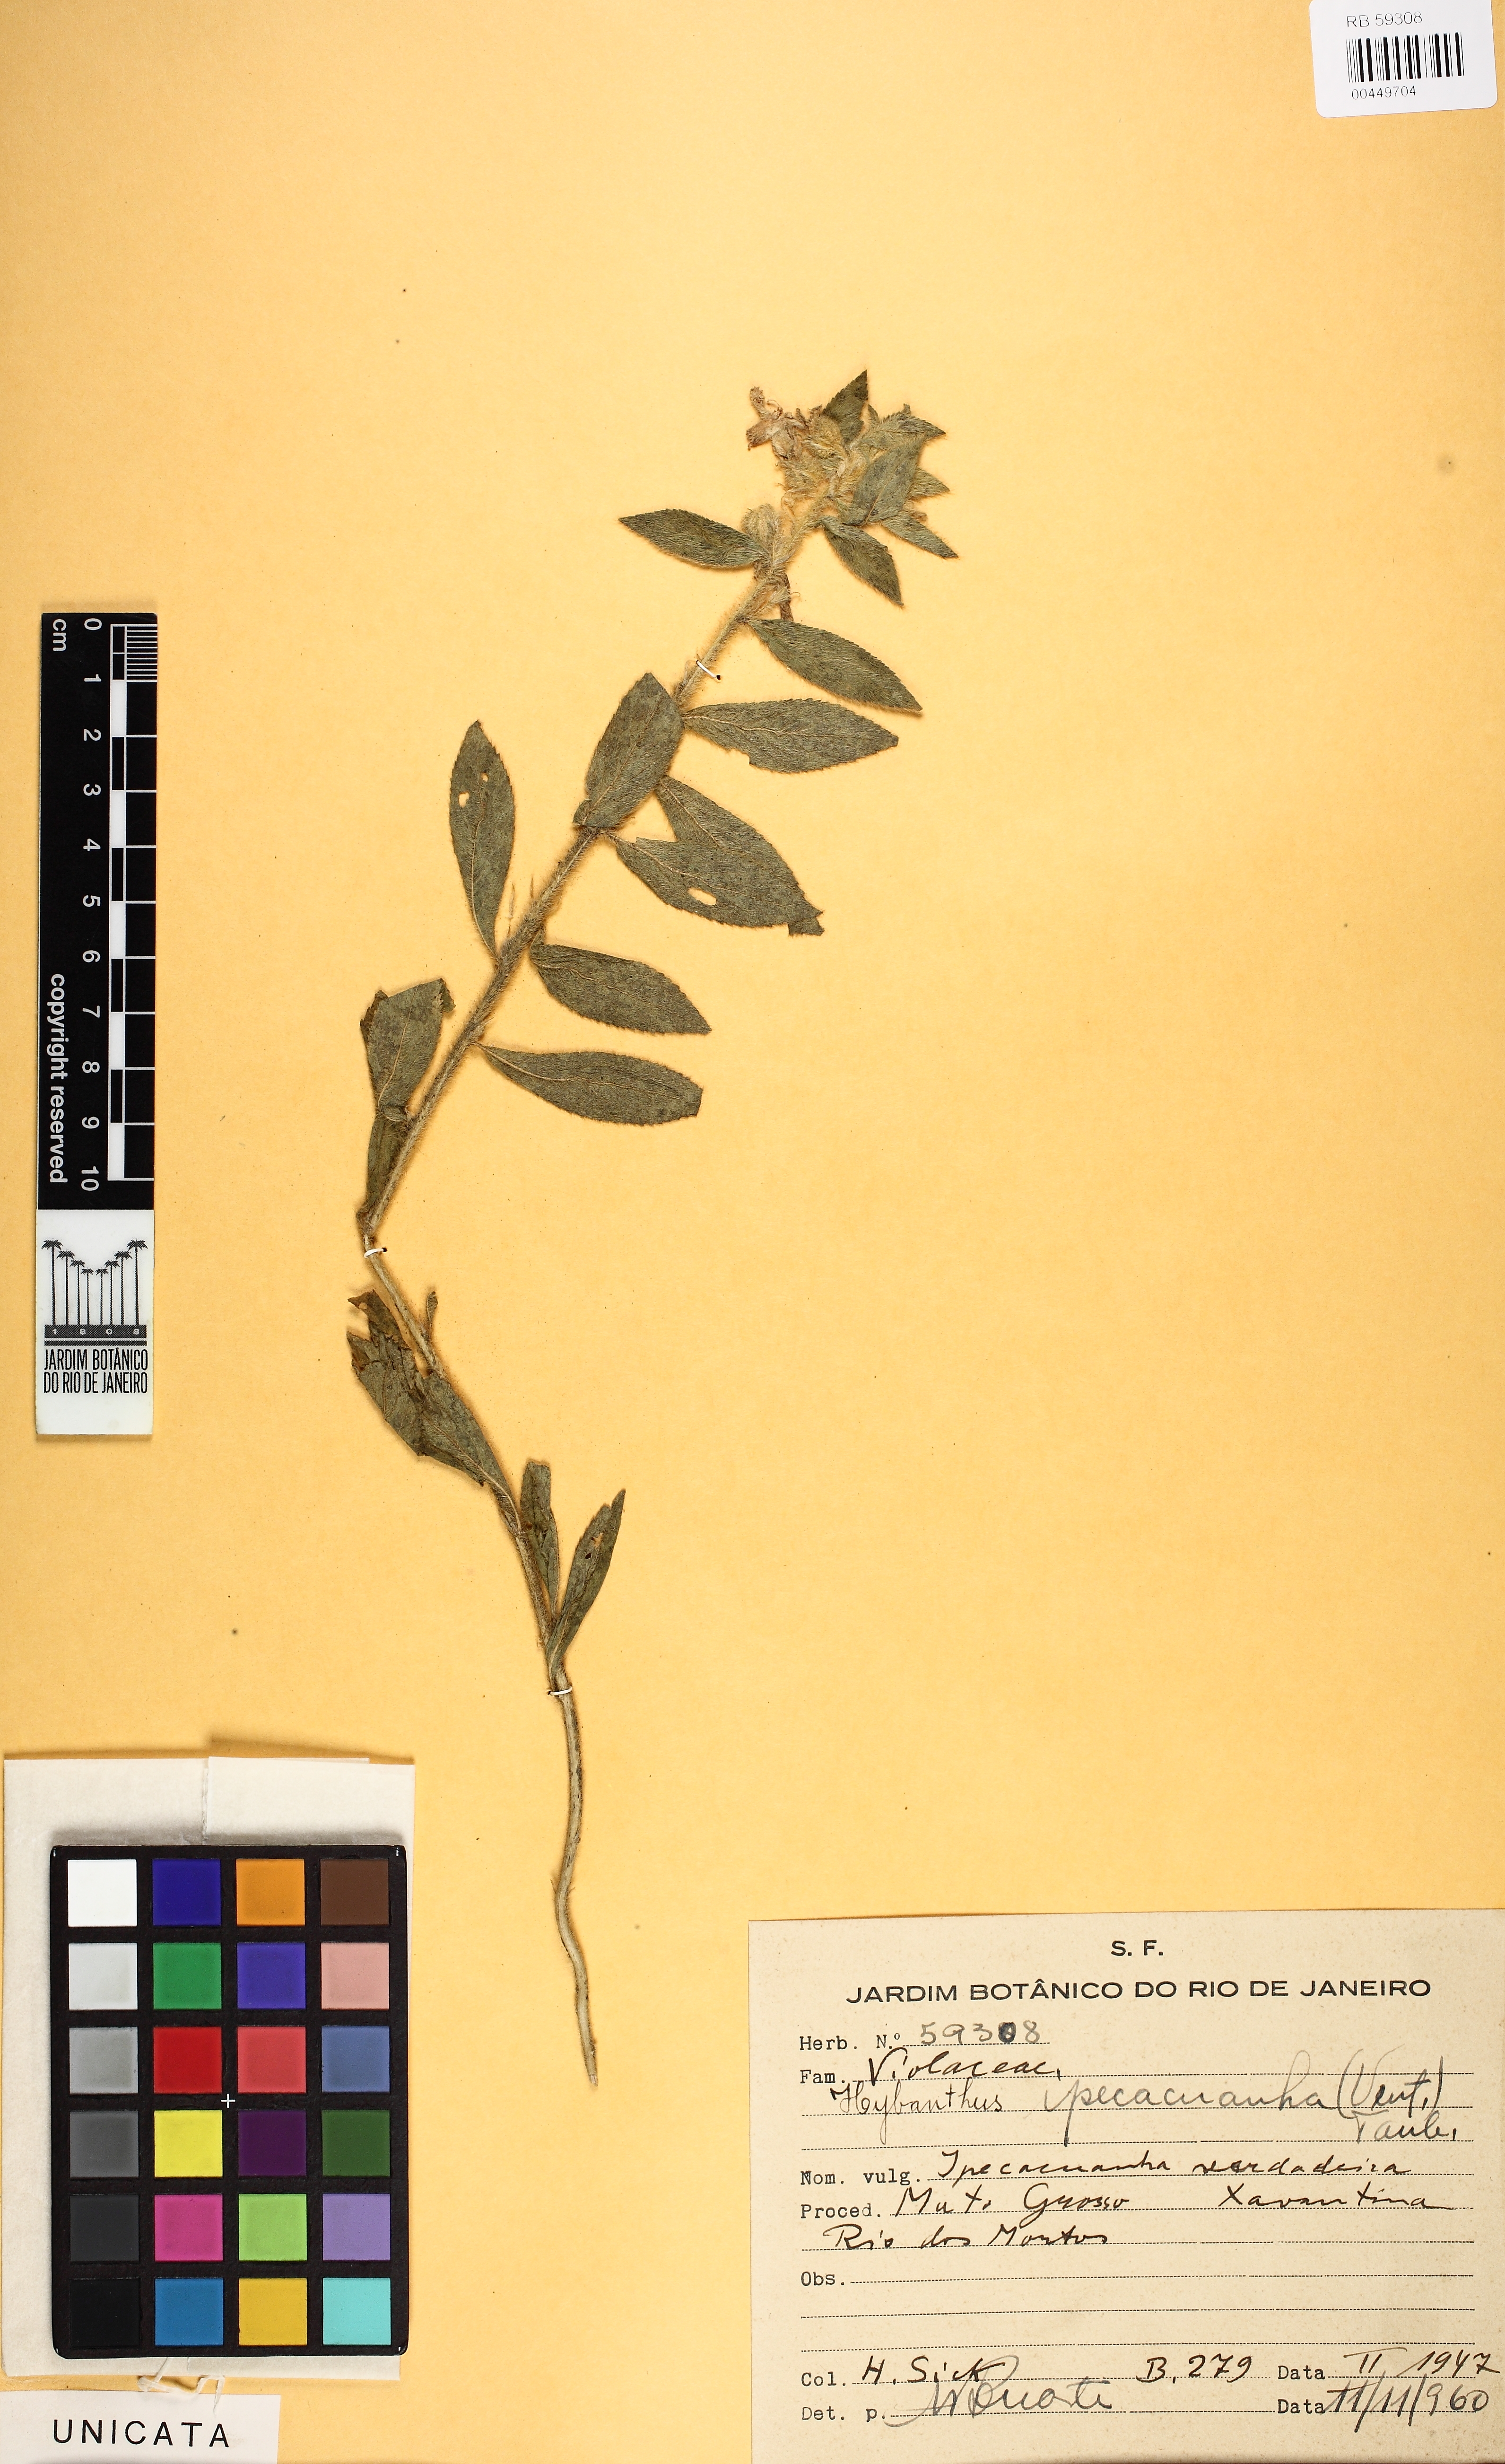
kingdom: Plantae
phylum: Tracheophyta
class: Magnoliopsida
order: Malpighiales
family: Violaceae
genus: Pombalia
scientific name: Pombalia calceolaria
